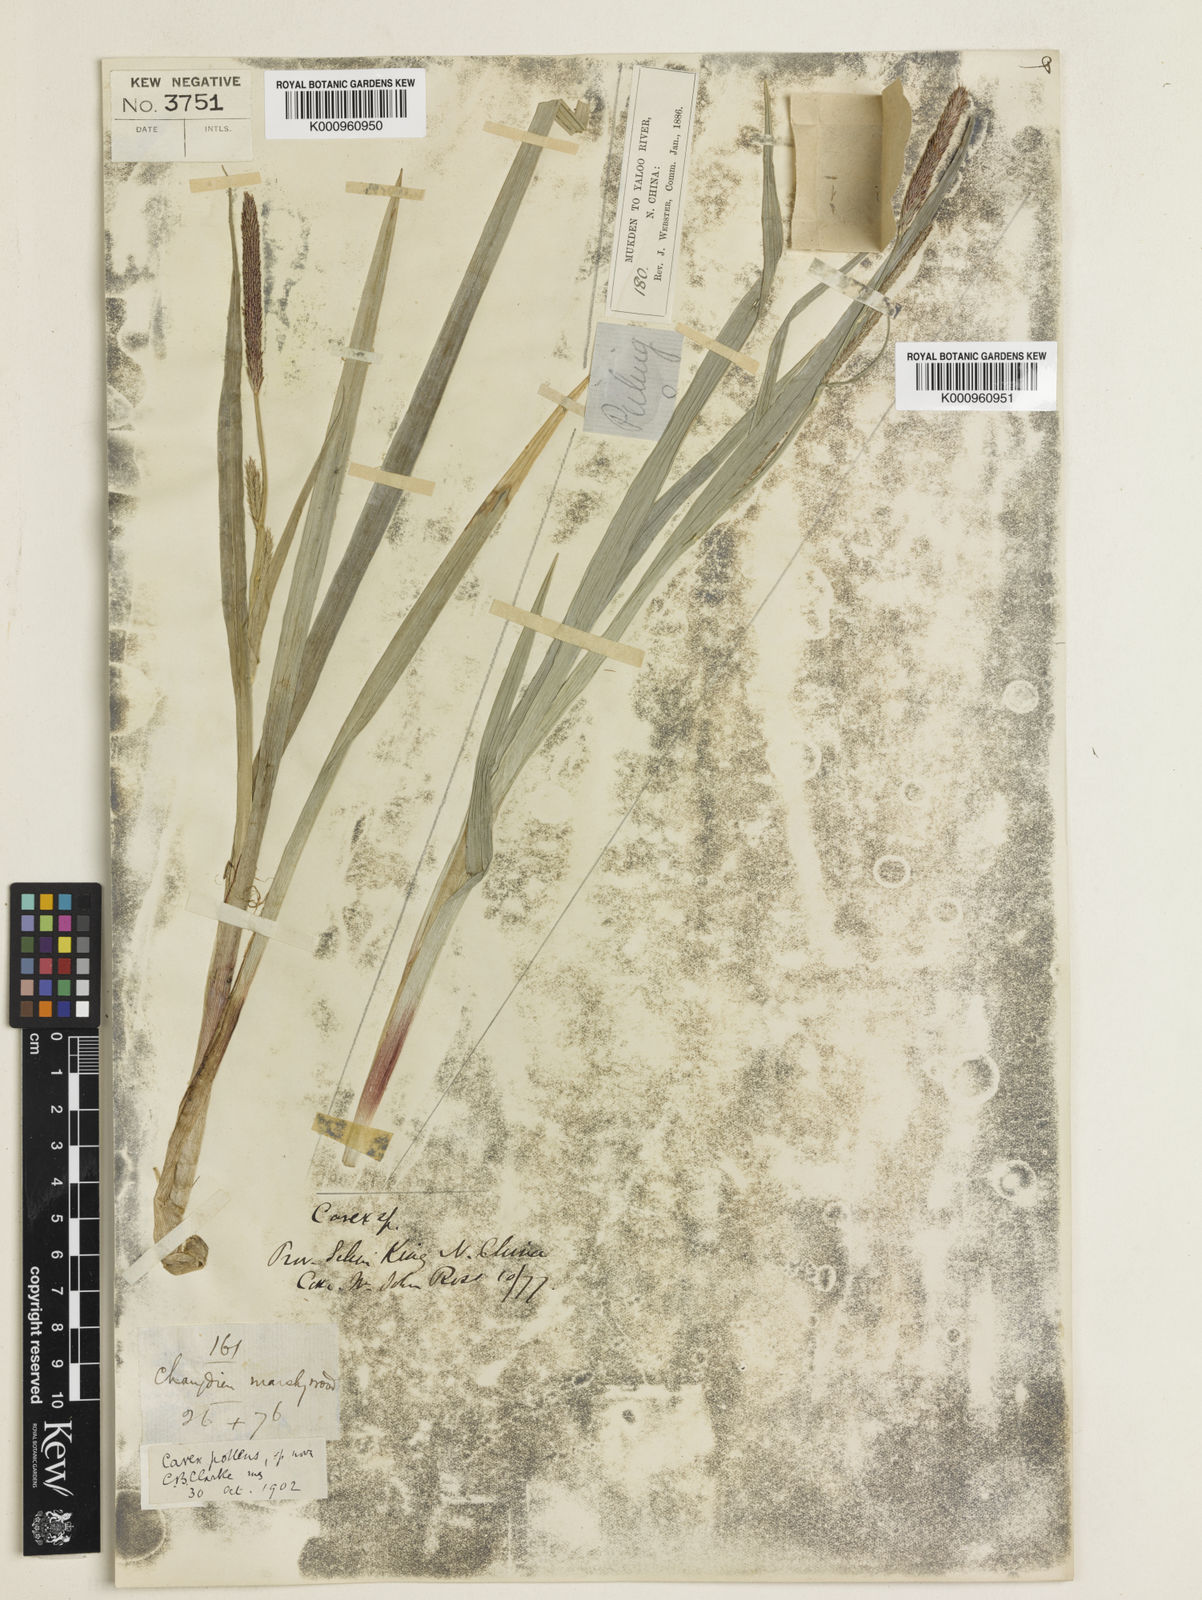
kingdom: Plantae
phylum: Tracheophyta
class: Liliopsida
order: Poales
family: Cyperaceae
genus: Carex
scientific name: Carex dispalata
